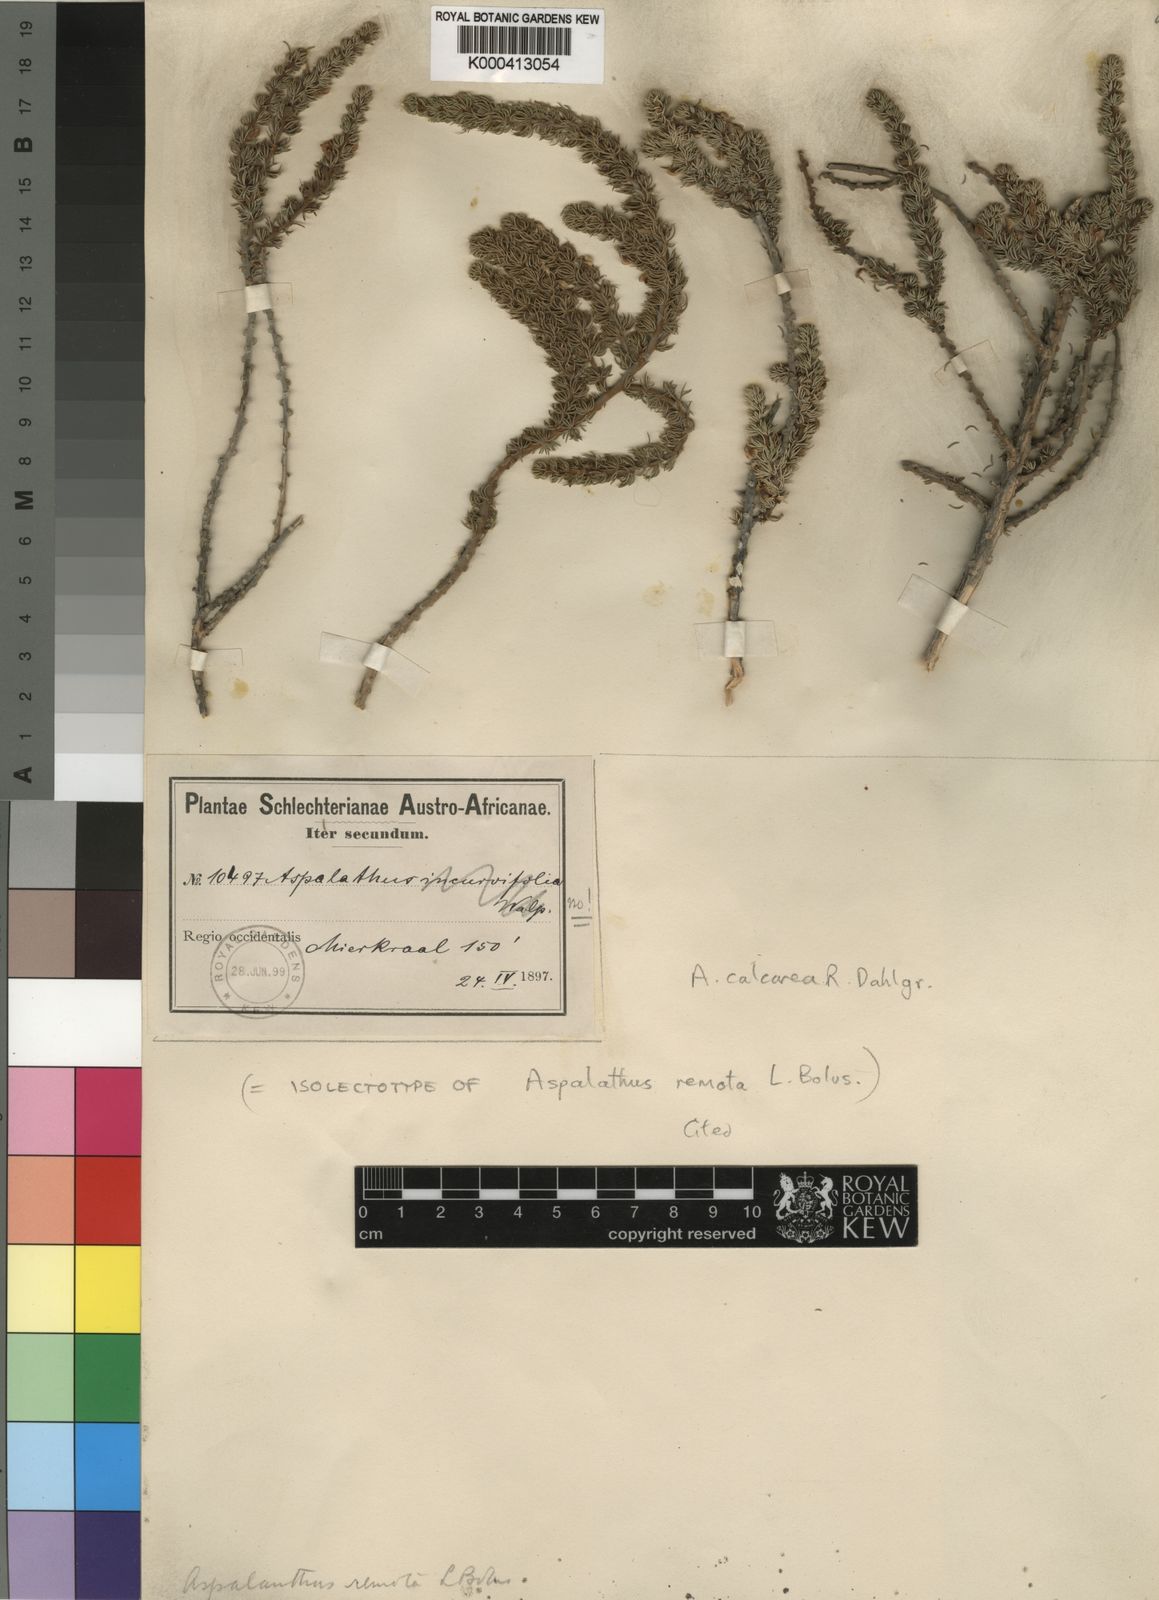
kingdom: Plantae
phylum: Tracheophyta
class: Magnoliopsida
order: Fabales
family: Fabaceae
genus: Aspalathus
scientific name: Aspalathus calcarea
